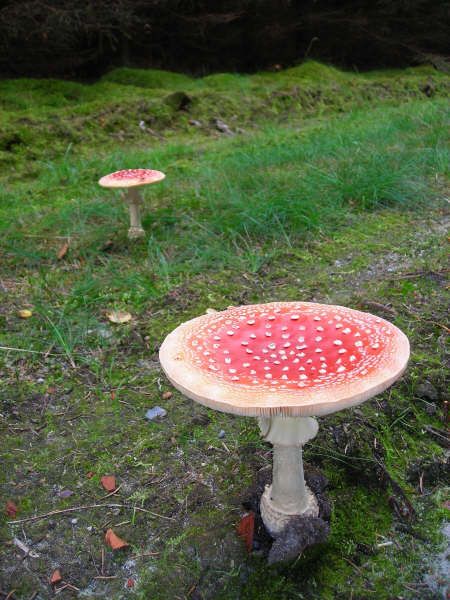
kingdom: Fungi
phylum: Basidiomycota
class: Agaricomycetes
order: Agaricales
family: Amanitaceae
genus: Amanita
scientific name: Amanita muscaria
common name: rød fluesvamp
